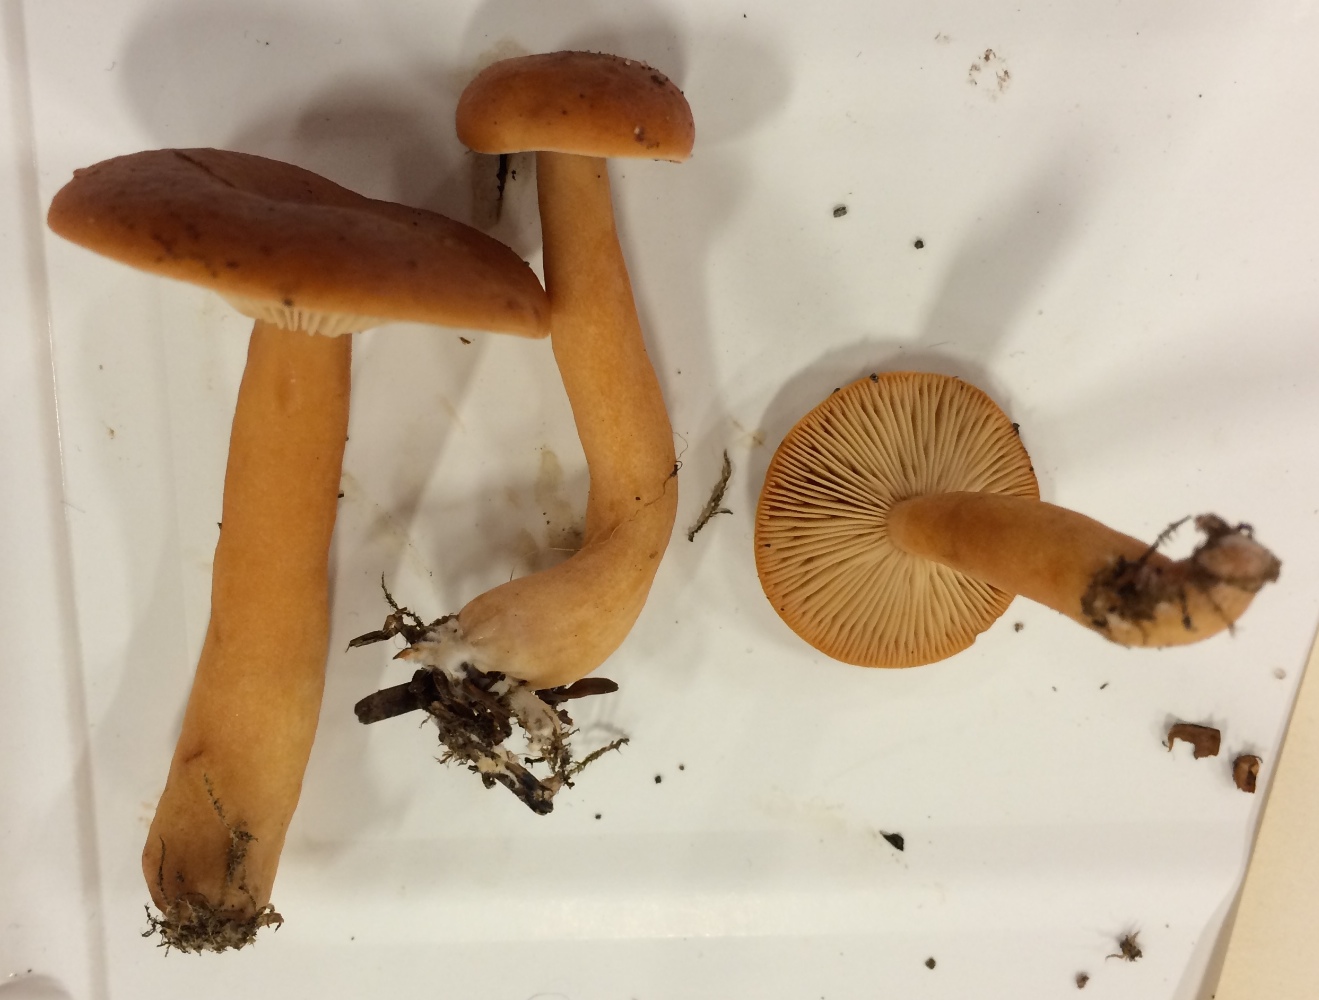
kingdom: Fungi
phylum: Basidiomycota
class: Agaricomycetes
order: Russulales
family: Russulaceae
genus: Lactarius
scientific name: Lactarius aurantiacus
